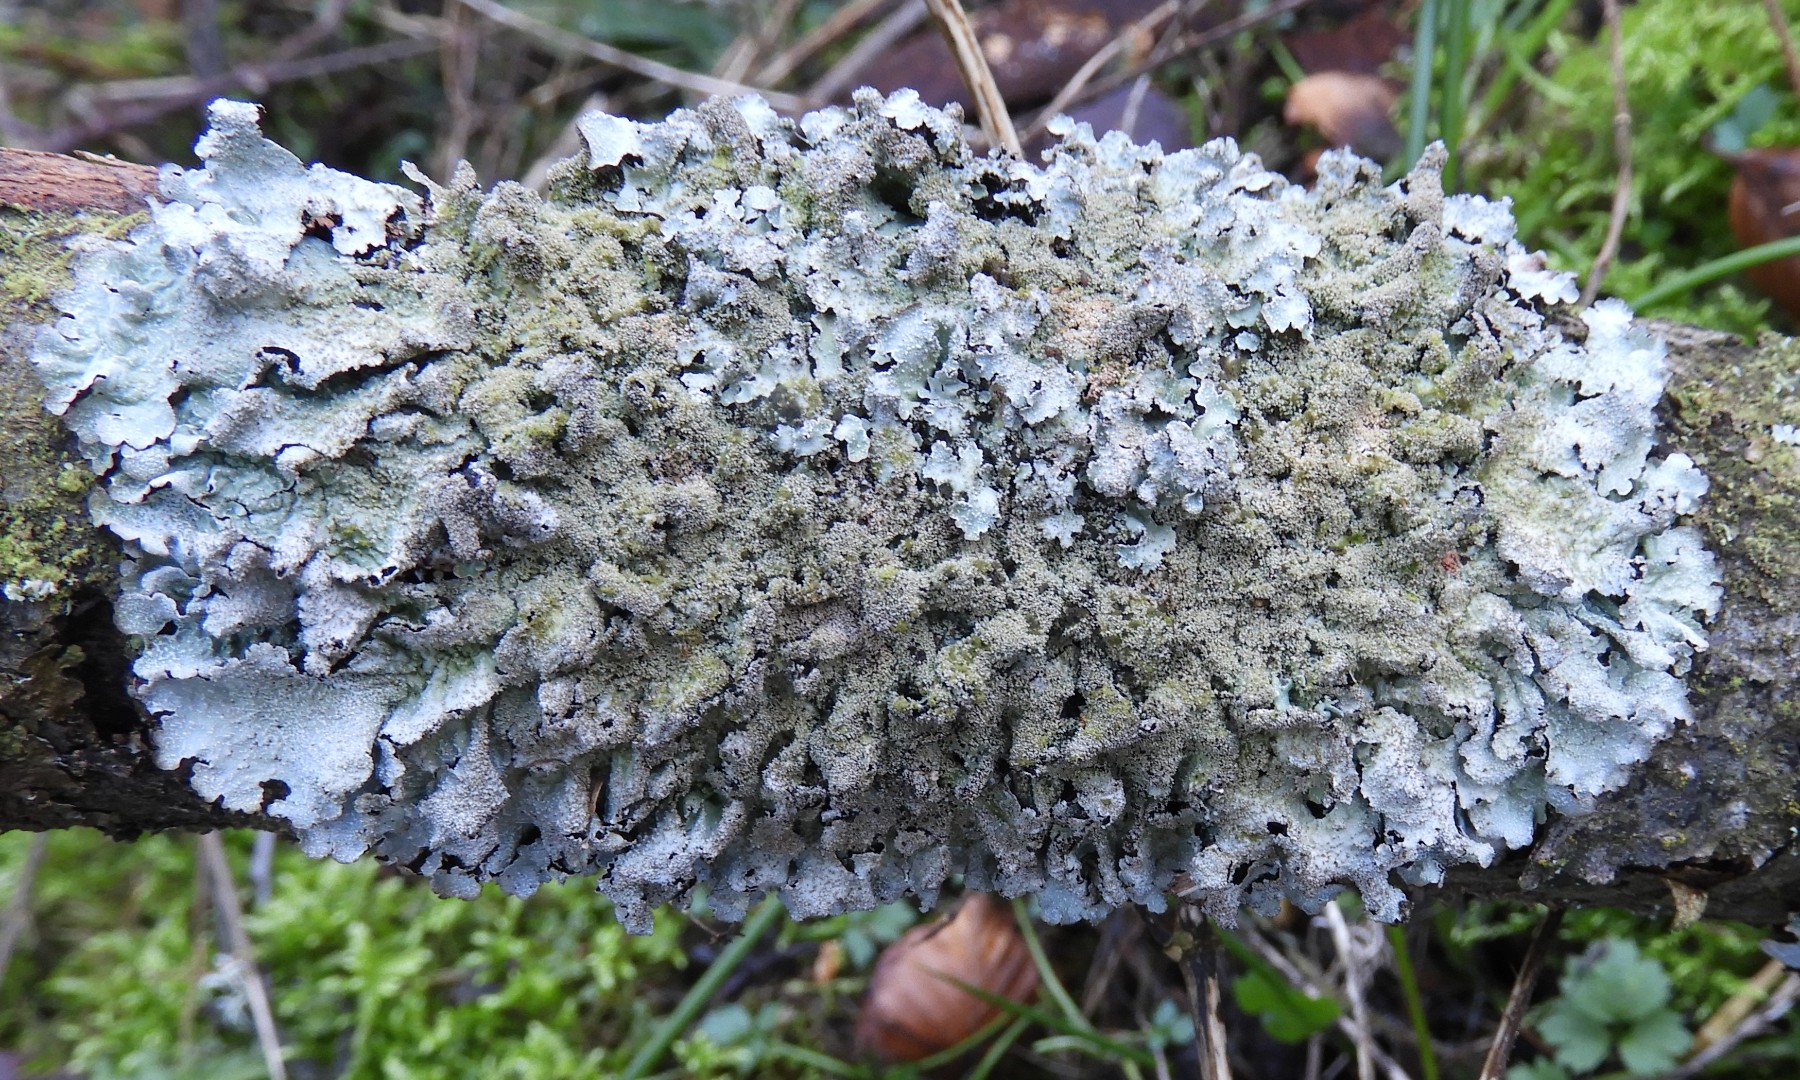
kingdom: Fungi
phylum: Ascomycota
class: Lecanoromycetes
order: Lecanorales
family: Parmeliaceae
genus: Parmelia
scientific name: Parmelia sulcata
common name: rynket skållav
